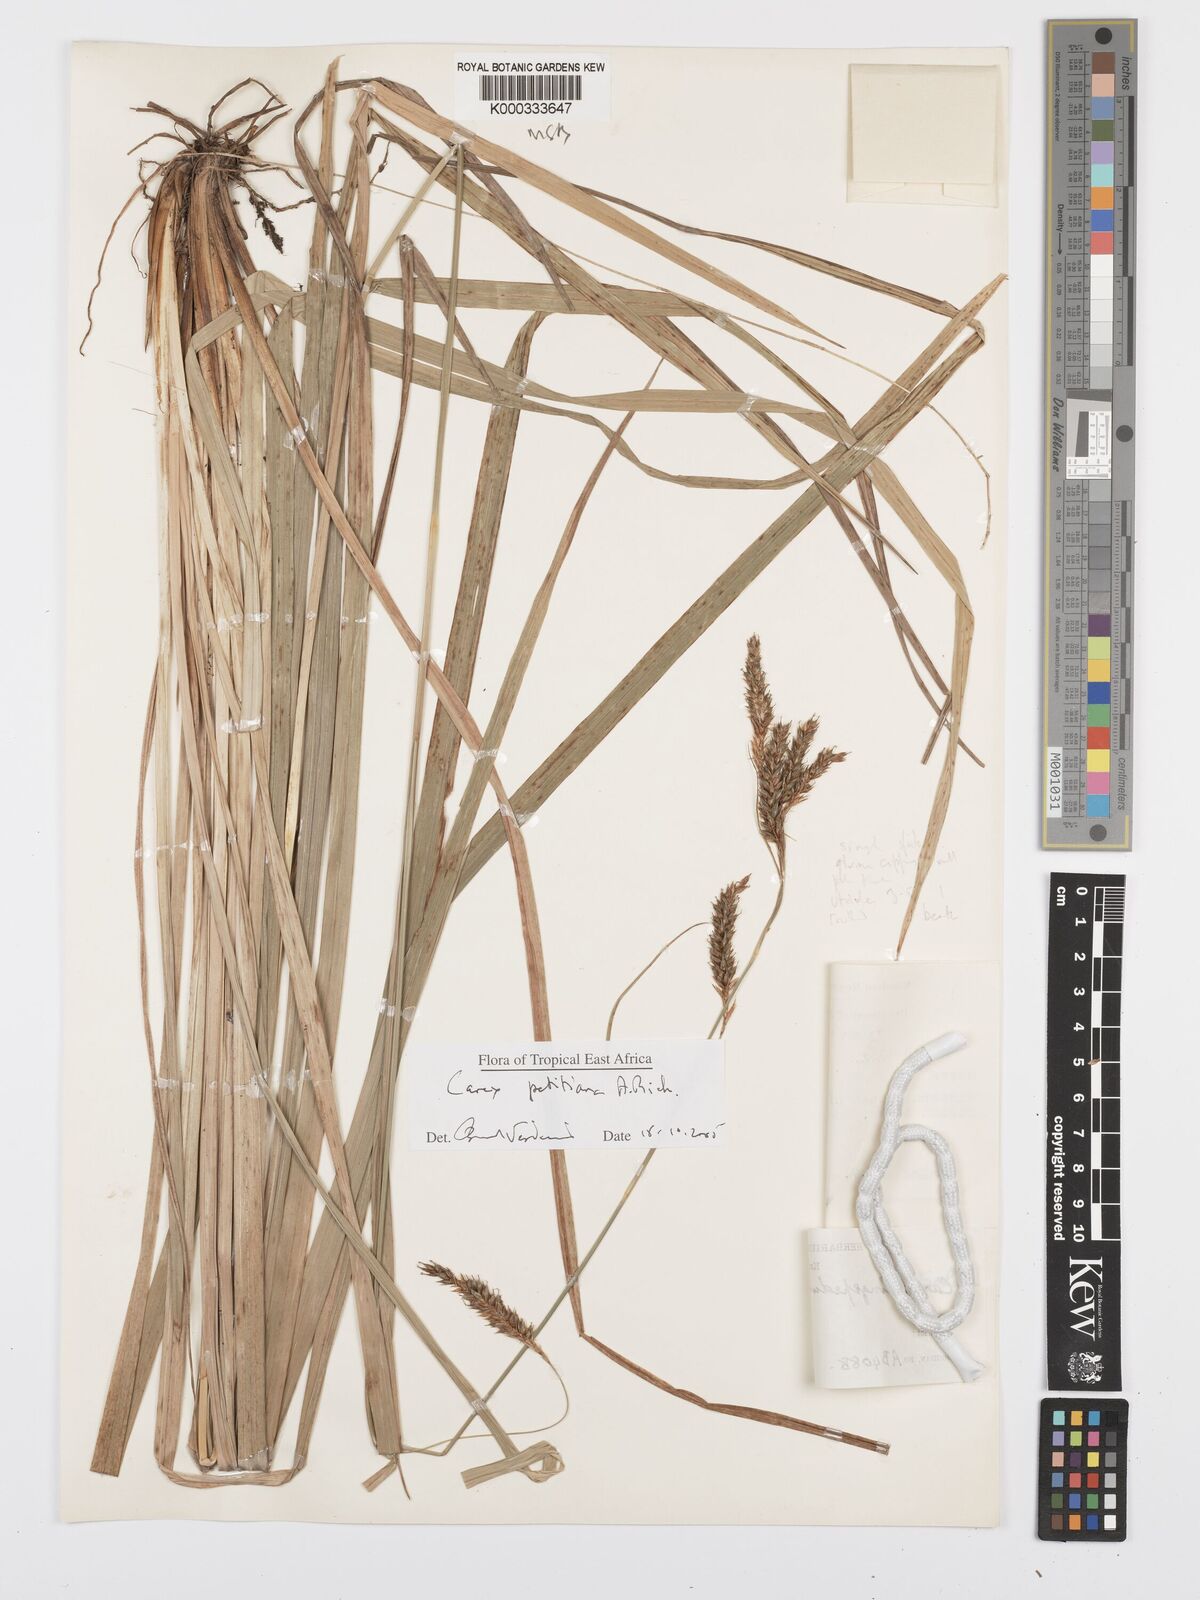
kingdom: Plantae
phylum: Tracheophyta
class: Liliopsida
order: Poales
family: Cyperaceae
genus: Carex
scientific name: Carex petitiana
